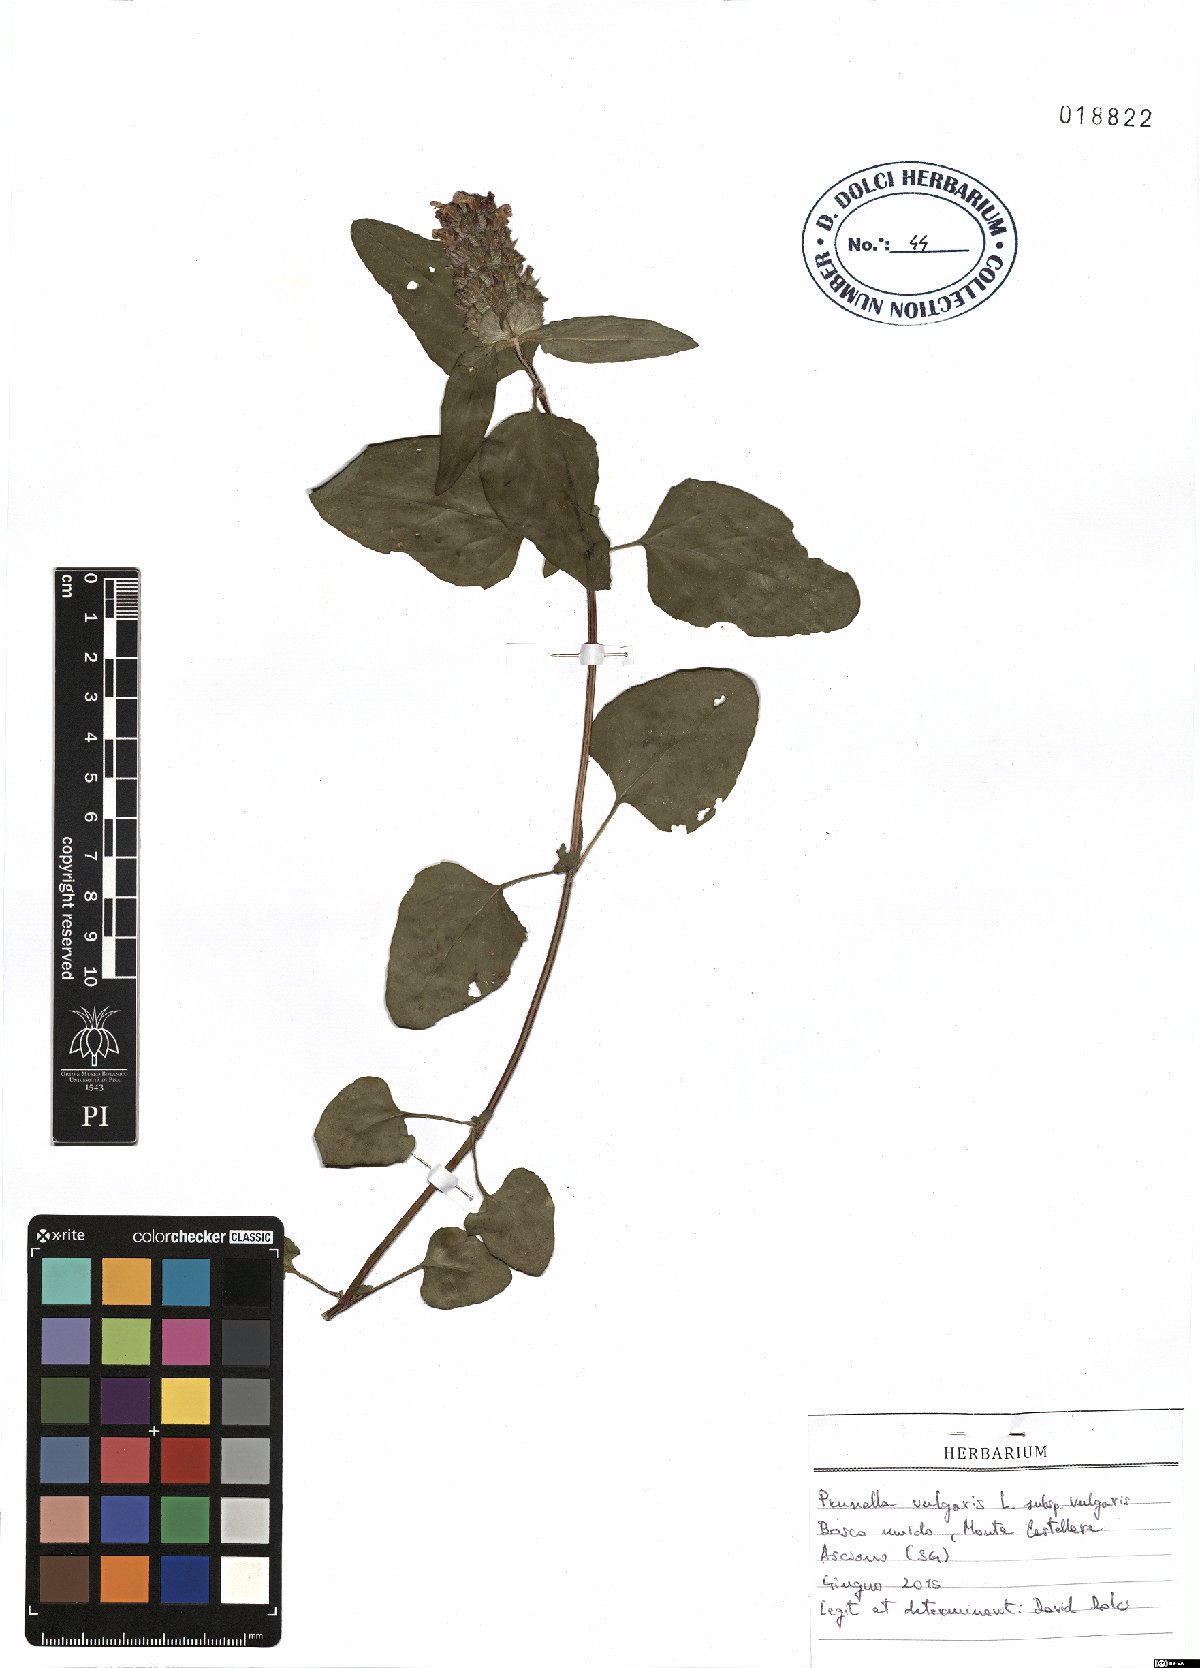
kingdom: Plantae
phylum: Tracheophyta
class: Magnoliopsida
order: Lamiales
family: Lamiaceae
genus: Prunella
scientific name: Prunella vulgaris
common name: Heal-all
